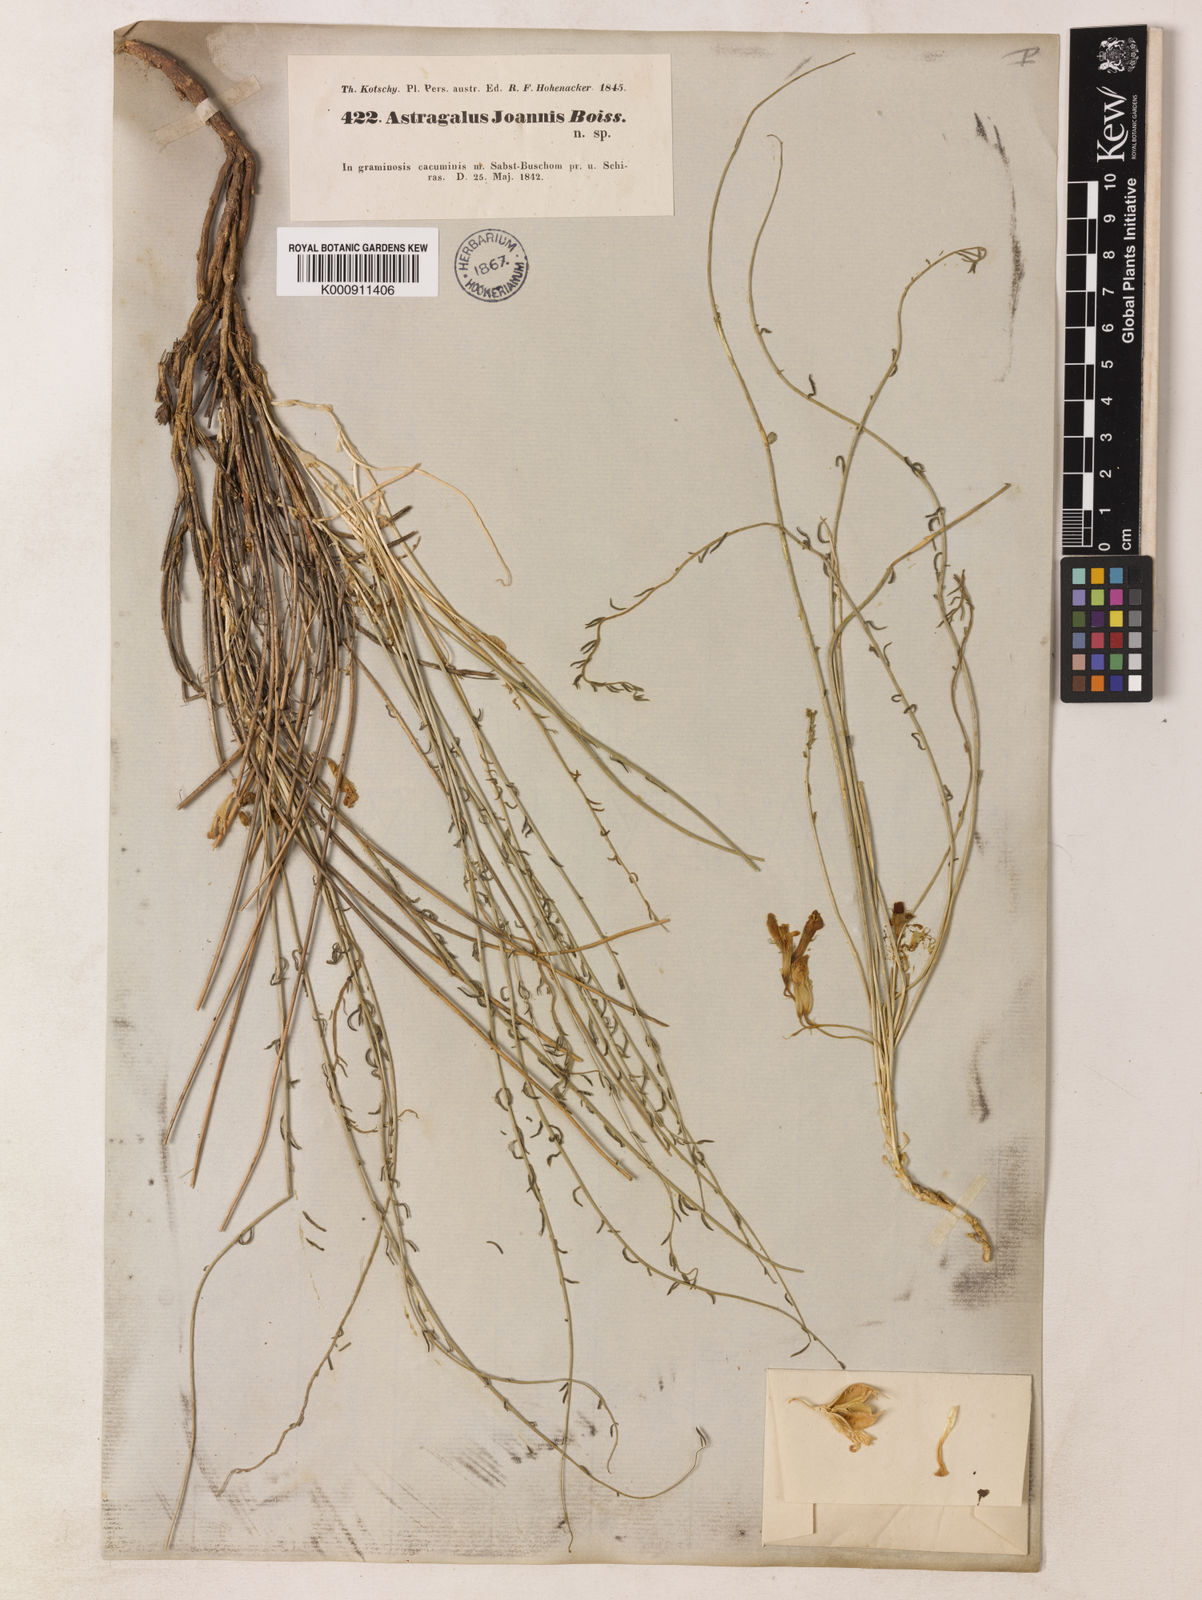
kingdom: Plantae
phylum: Tracheophyta
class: Magnoliopsida
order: Fabales
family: Fabaceae
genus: Astragalus
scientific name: Astragalus johannis
